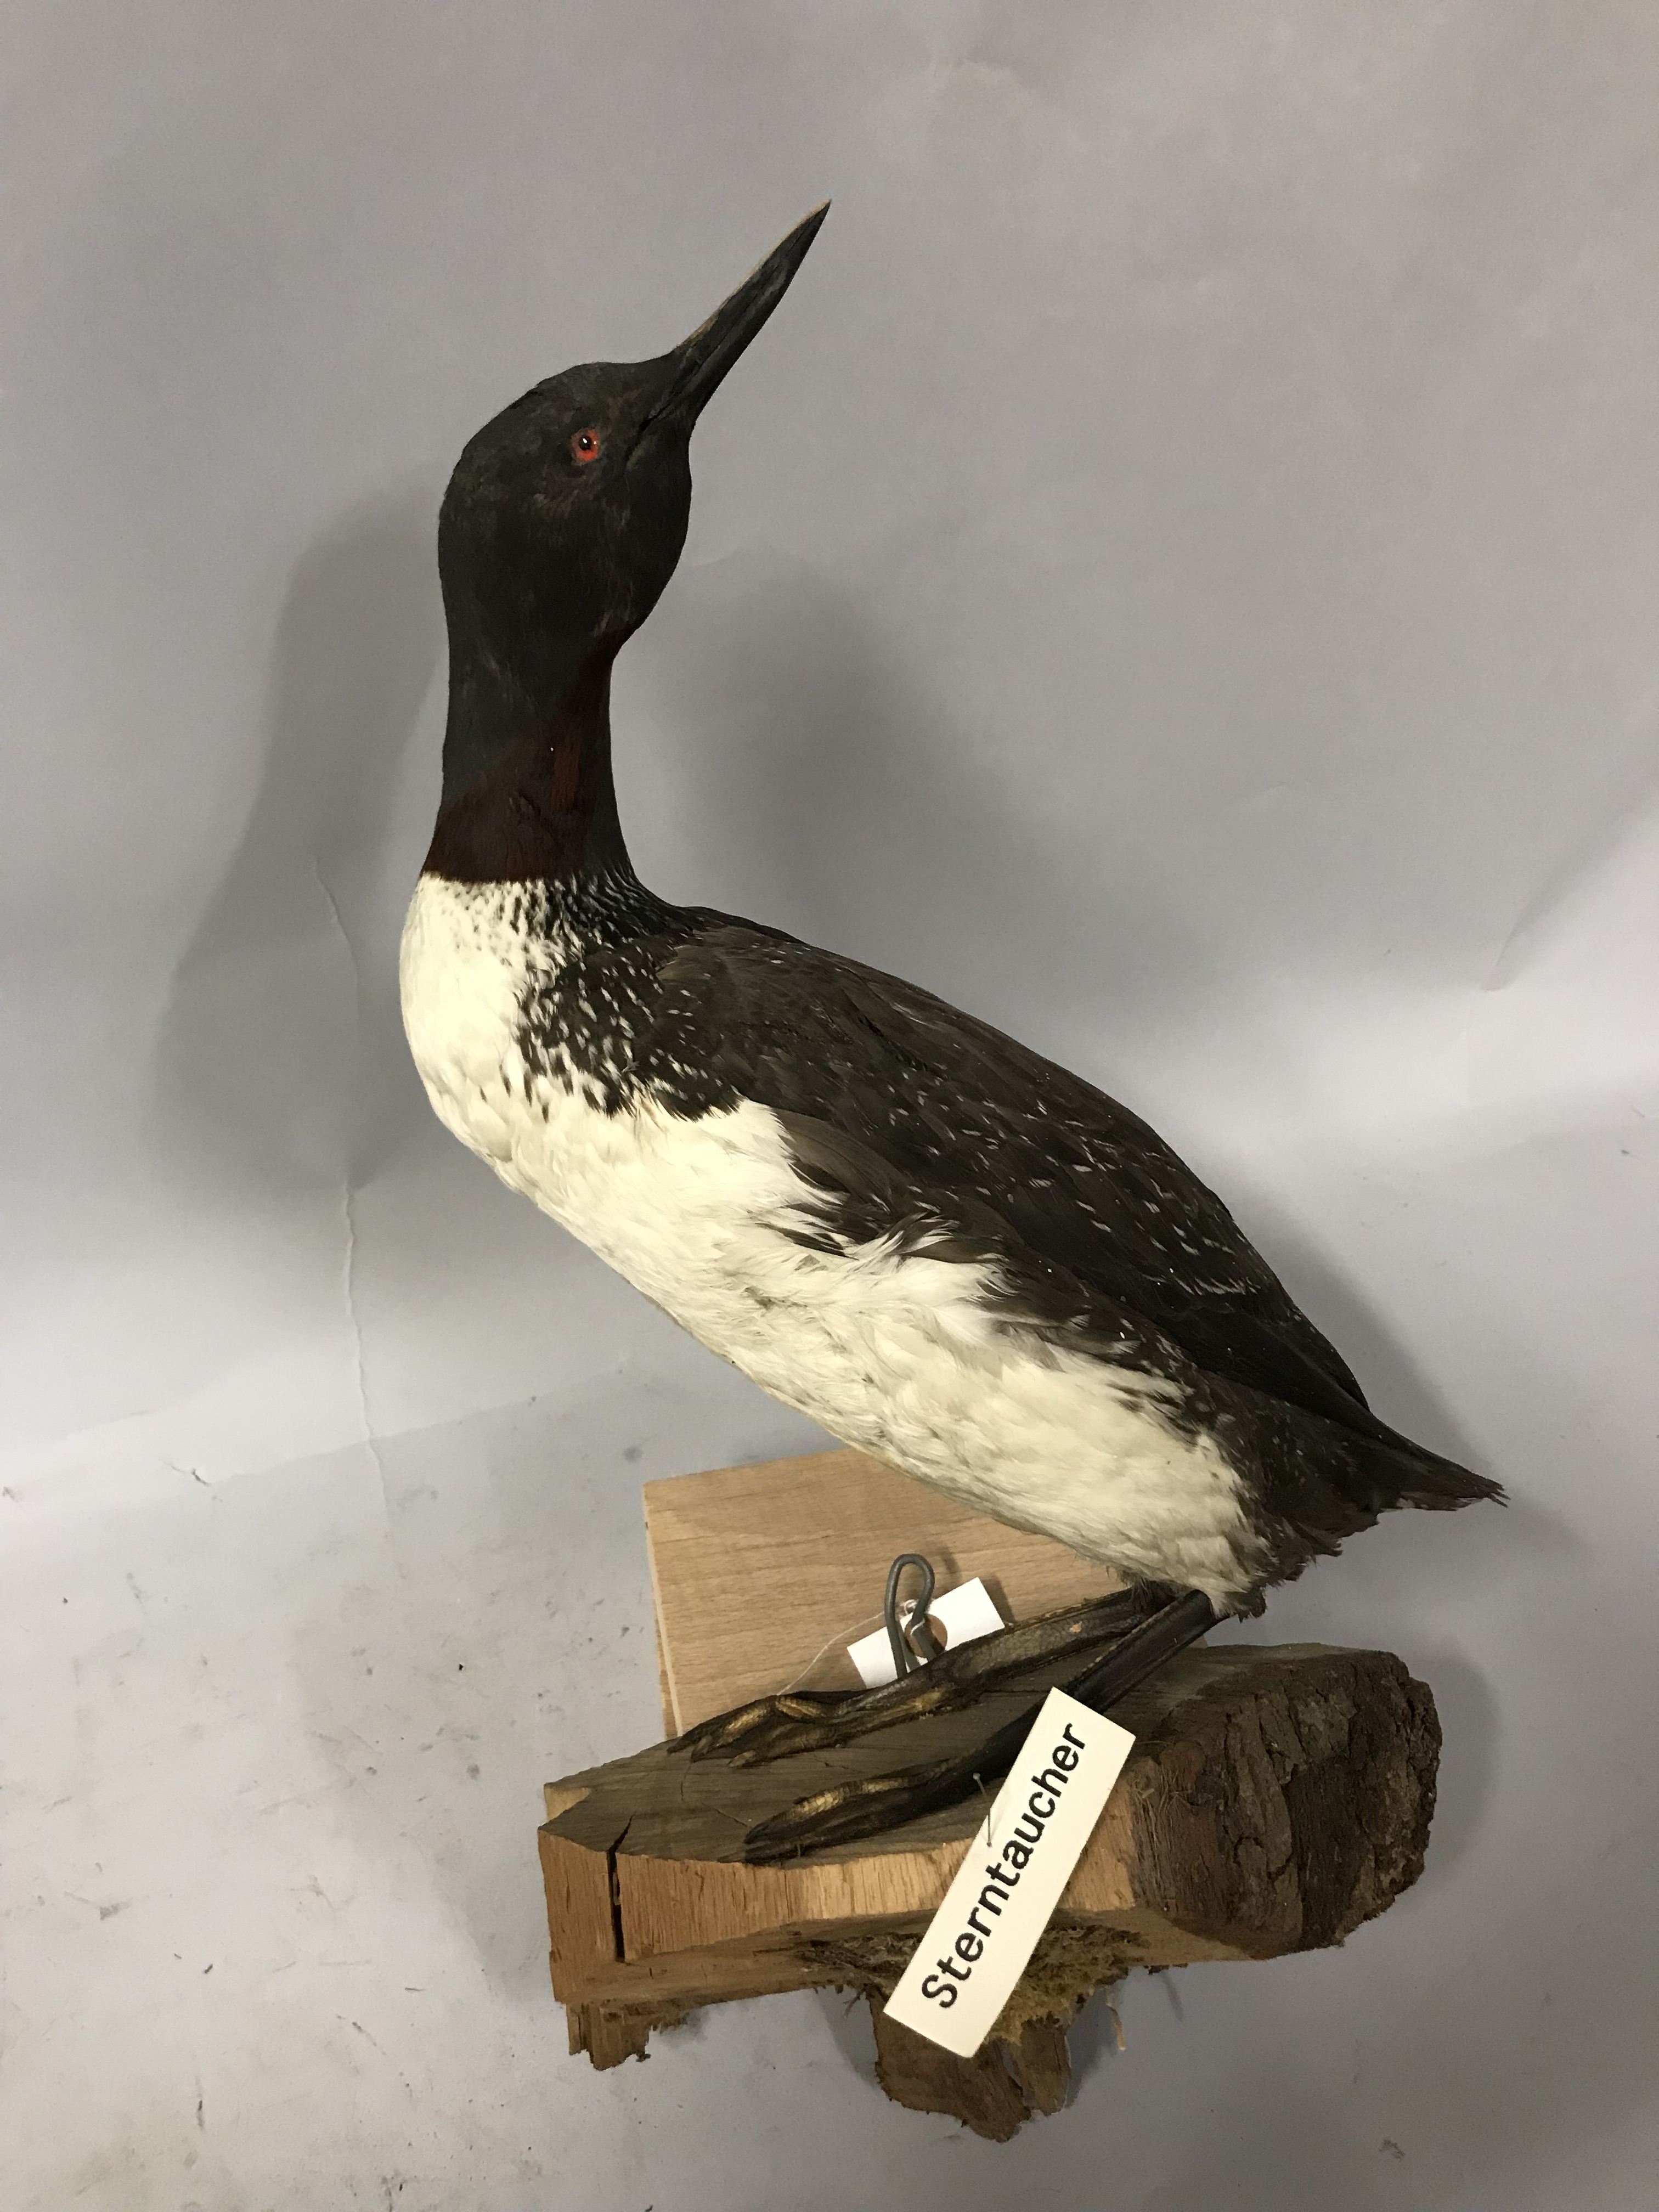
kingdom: Animalia
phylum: Chordata
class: Aves
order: Gaviiformes
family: Gaviidae
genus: Gavia
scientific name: Gavia stellata
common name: Red-throated loon
